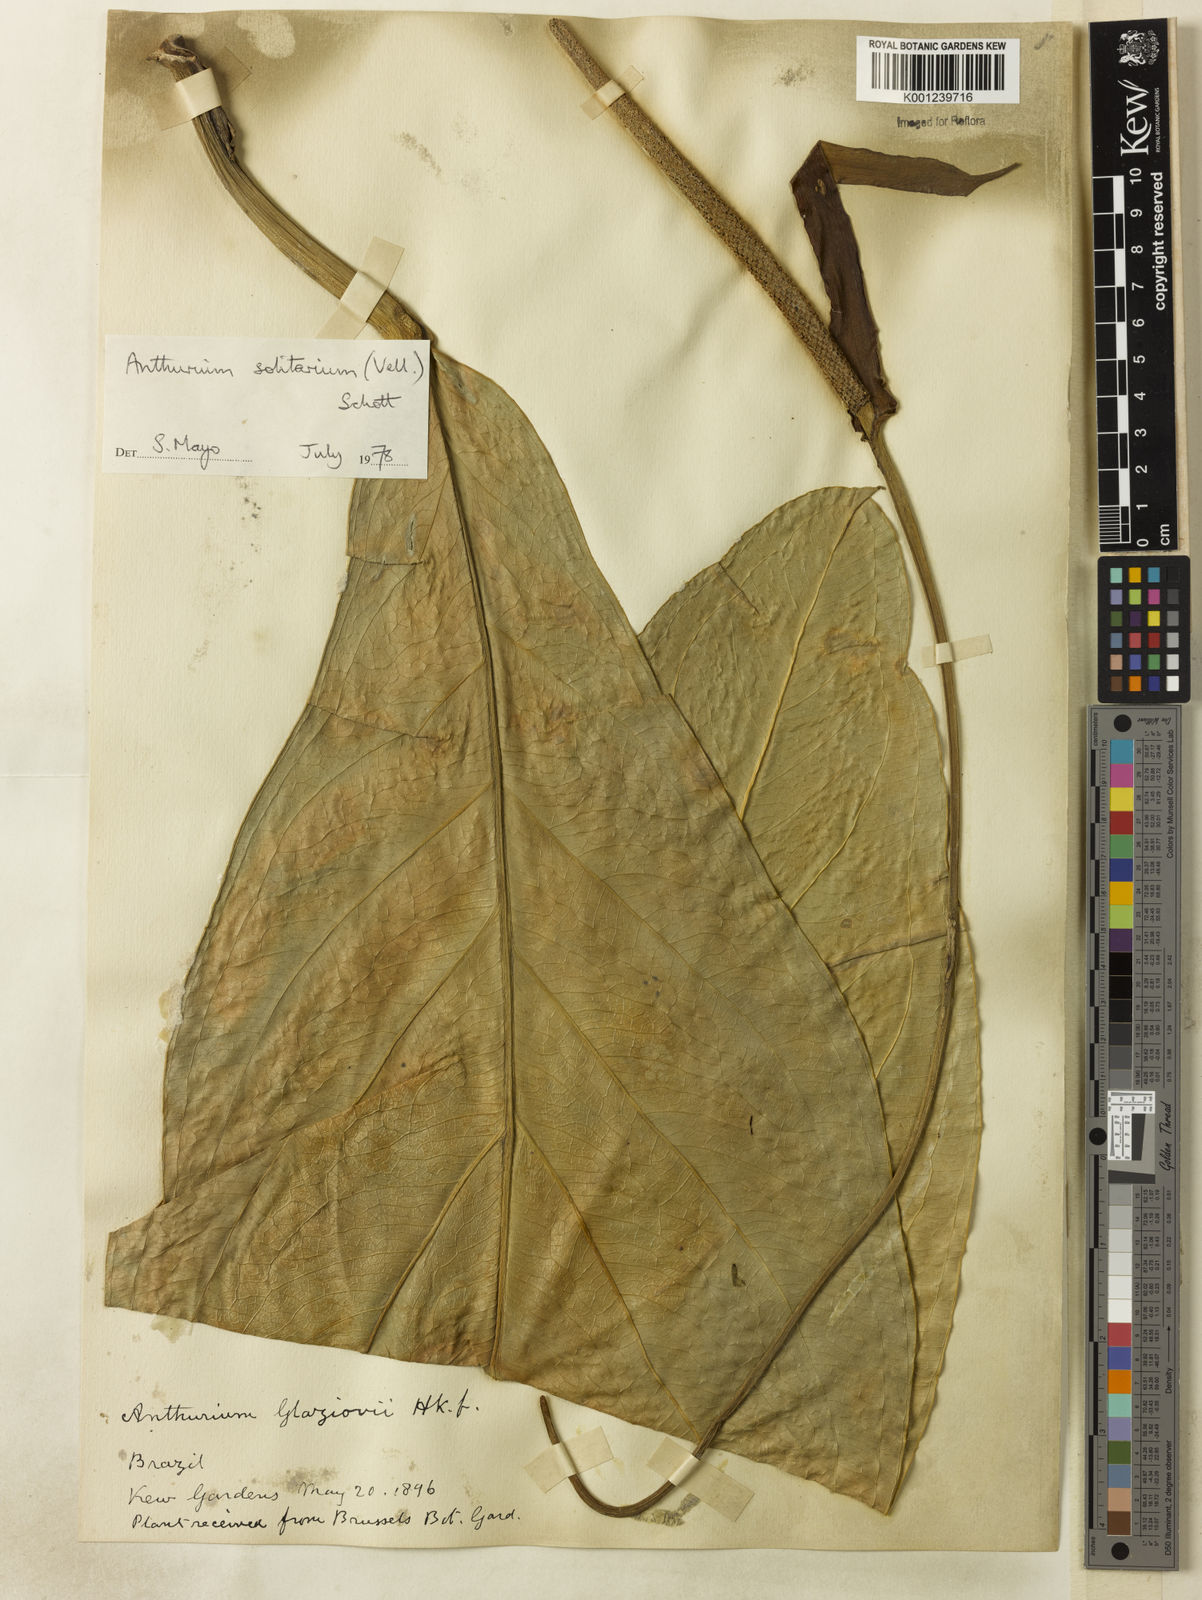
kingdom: Plantae
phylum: Tracheophyta
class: Liliopsida
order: Alismatales
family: Araceae
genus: Anthurium
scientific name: Anthurium solitarium
